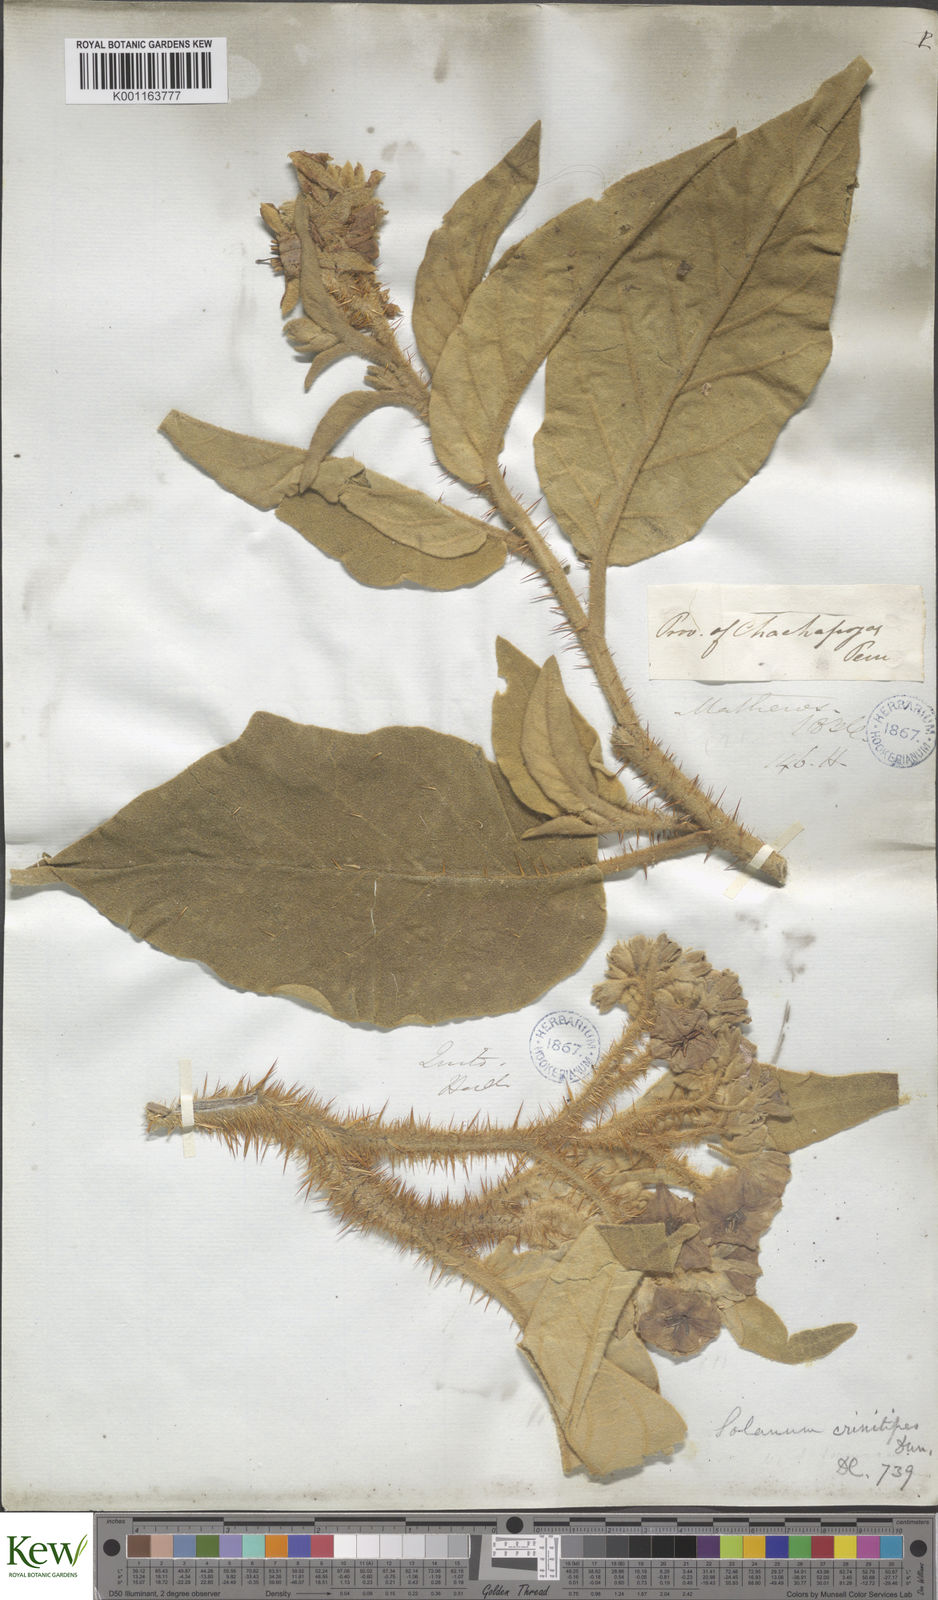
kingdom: Plantae
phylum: Tracheophyta
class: Magnoliopsida
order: Solanales
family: Solanaceae
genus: Solanum
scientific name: Solanum crinitipes
